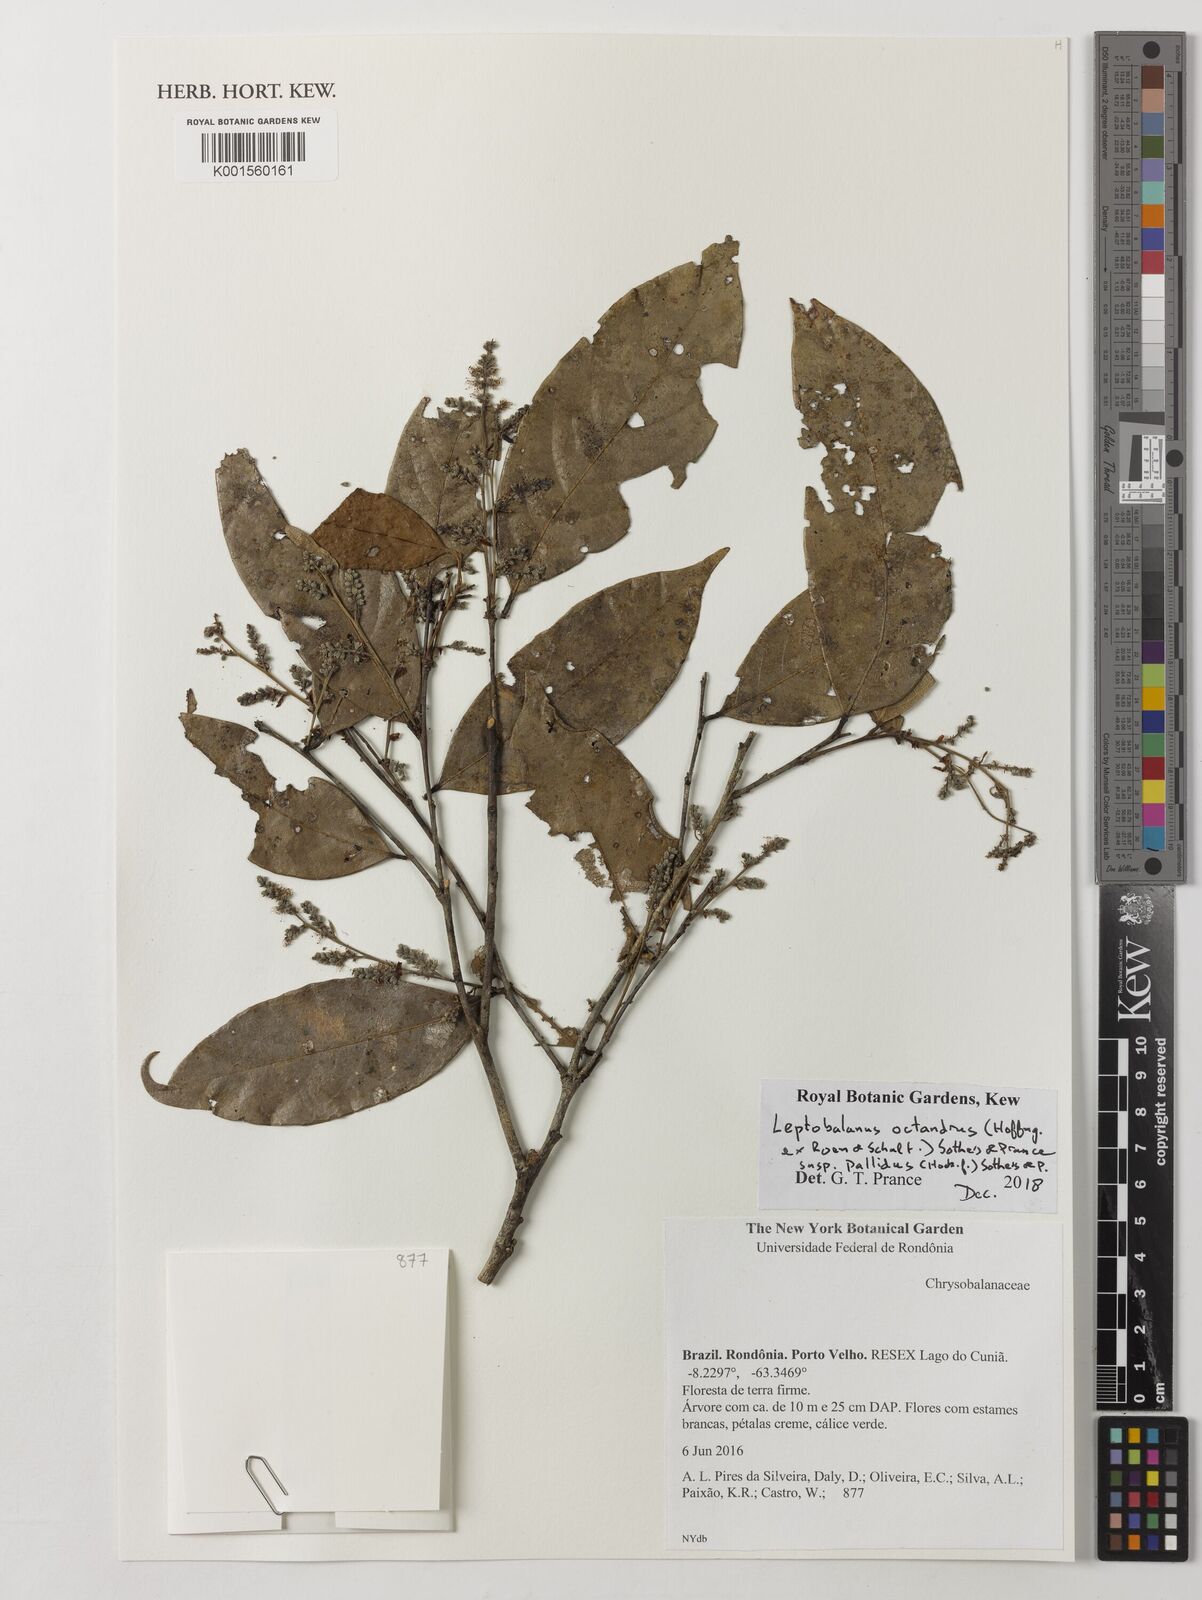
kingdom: Plantae
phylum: Tracheophyta
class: Magnoliopsida
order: Malpighiales
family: Chrysobalanaceae
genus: Leptobalanus
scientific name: Leptobalanus octandrus
